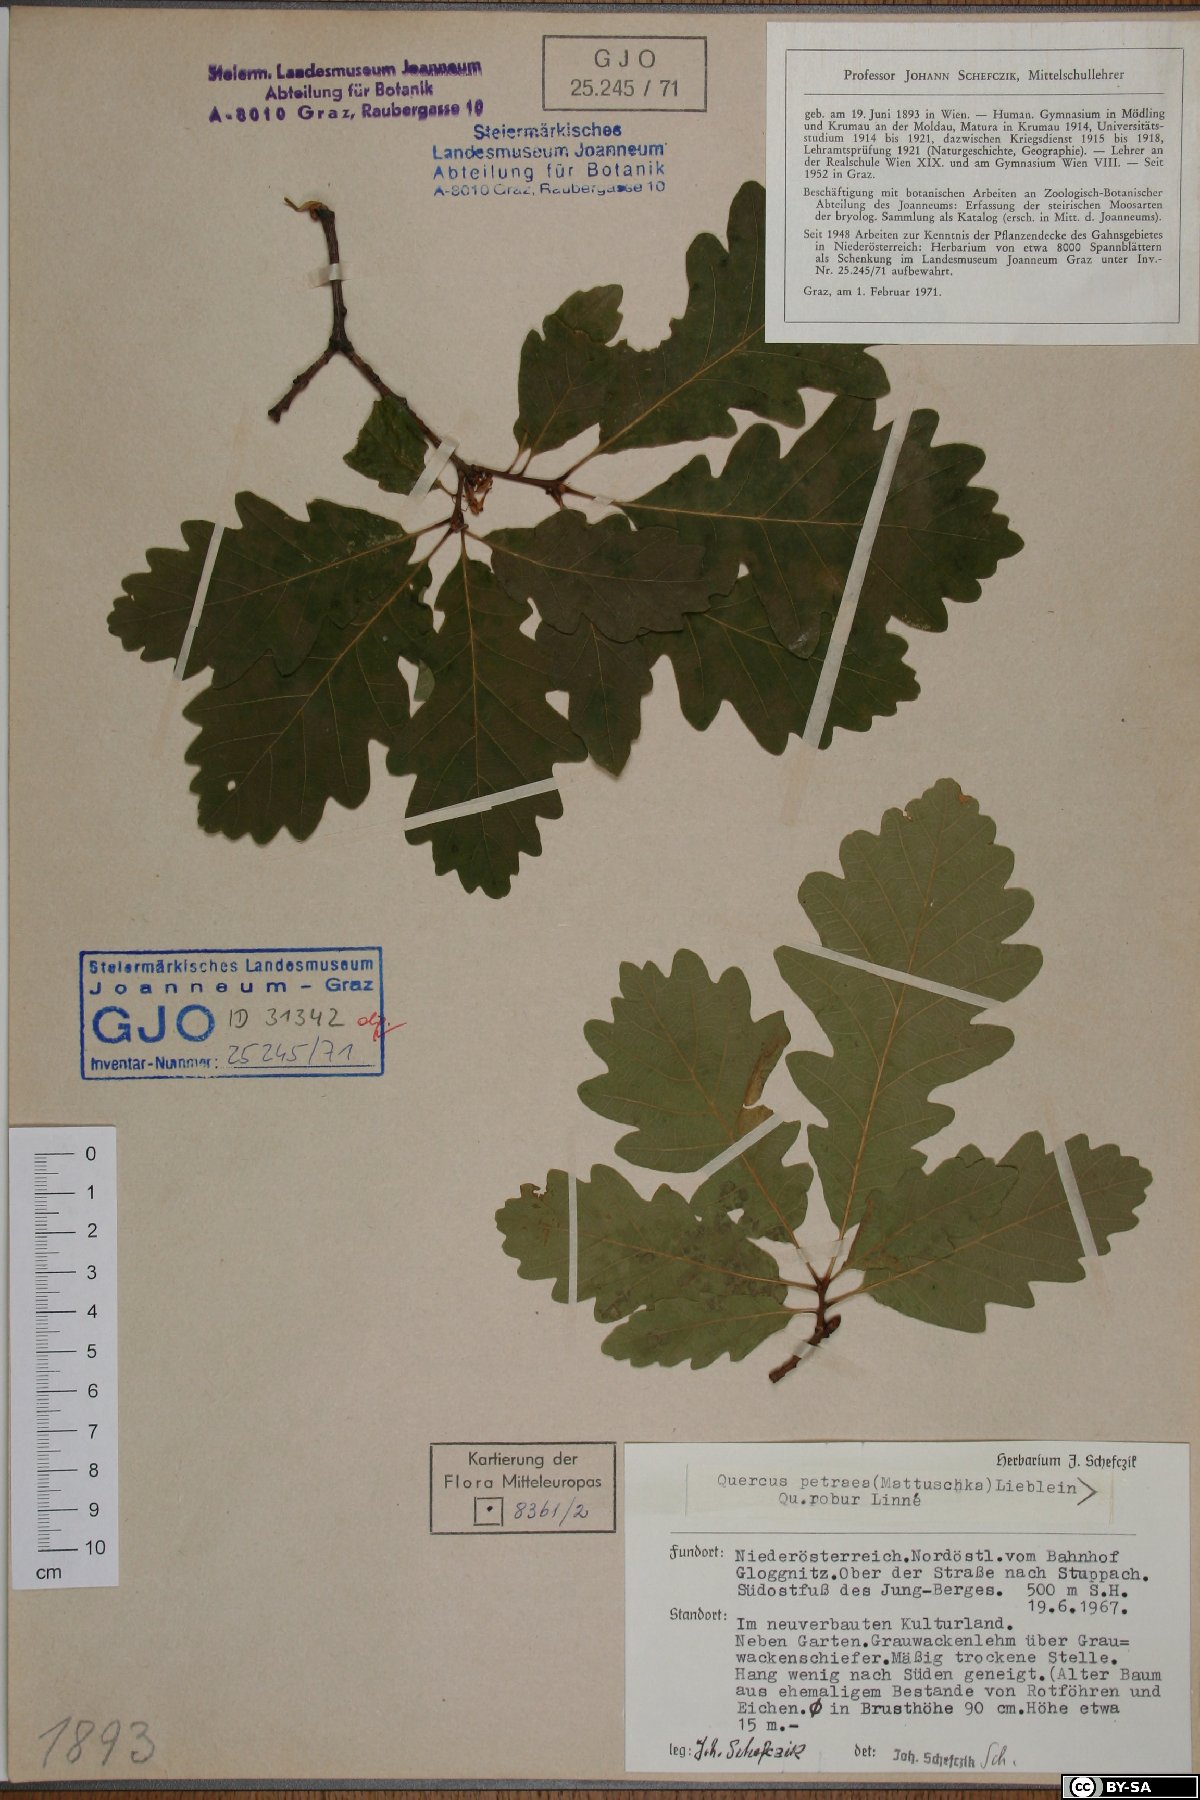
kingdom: Plantae
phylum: Tracheophyta
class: Magnoliopsida
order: Fagales
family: Fagaceae
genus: Quercus
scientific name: Quercus petraea
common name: Sessile oak
